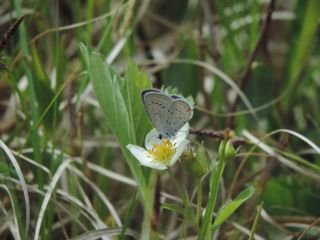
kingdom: Animalia
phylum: Arthropoda
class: Insecta
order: Lepidoptera
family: Lycaenidae
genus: Elkalyce
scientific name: Elkalyce comyntas
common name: Eastern Tailed-Blue
